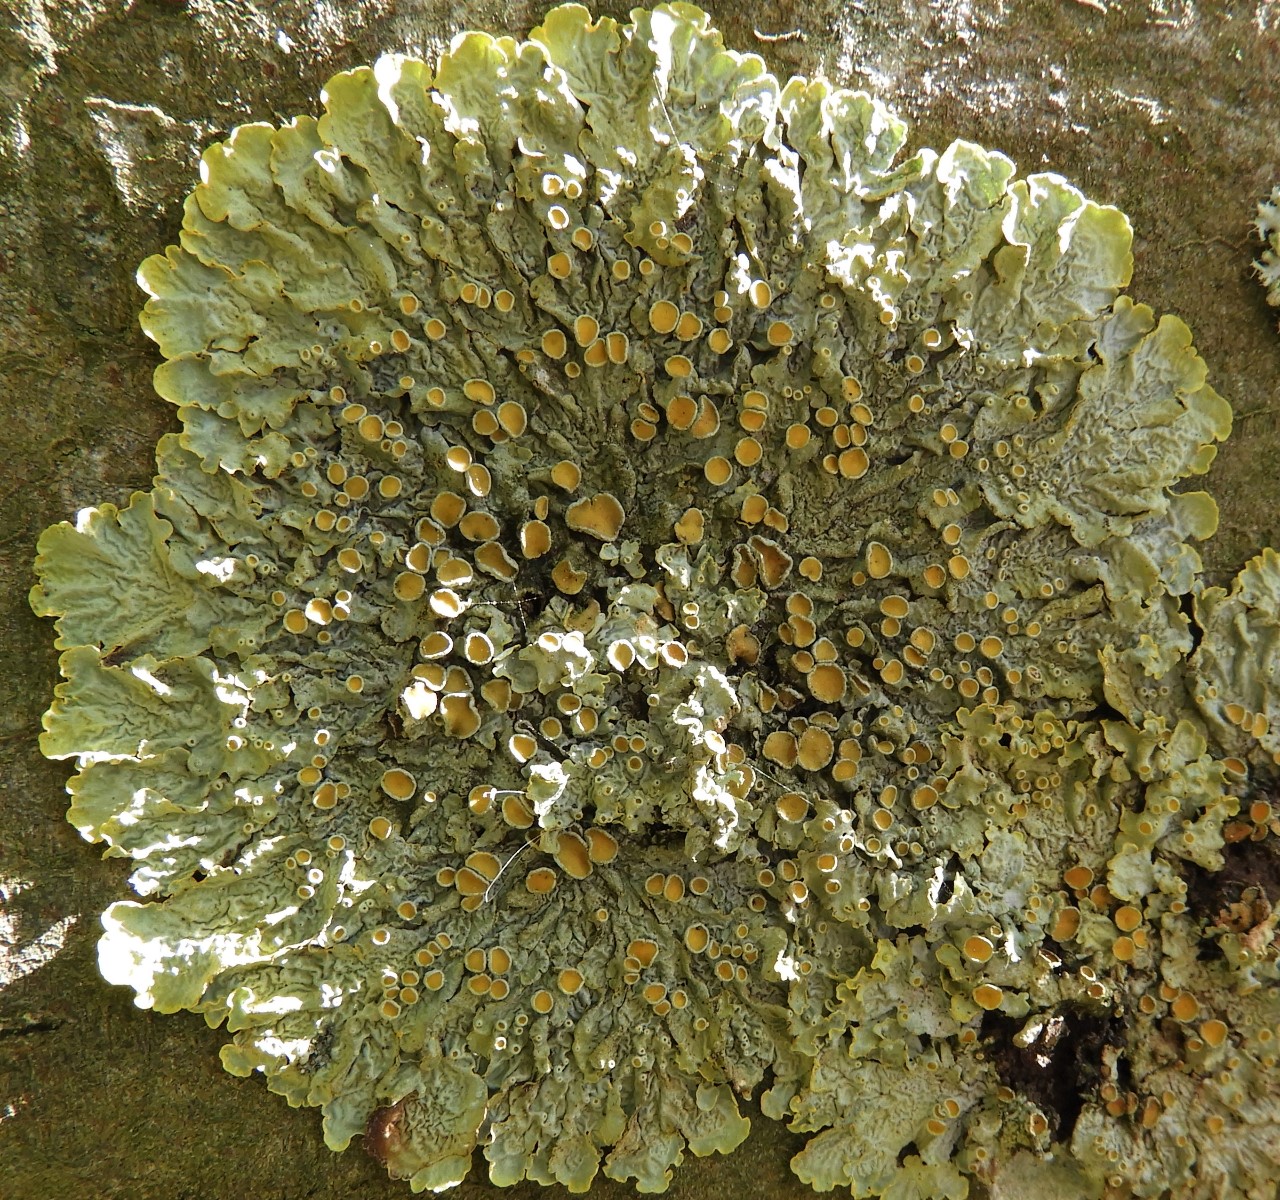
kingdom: Fungi
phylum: Ascomycota
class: Lecanoromycetes
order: Teloschistales
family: Teloschistaceae
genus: Xanthoria
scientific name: Xanthoria parietina
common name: almindelig væggelav
